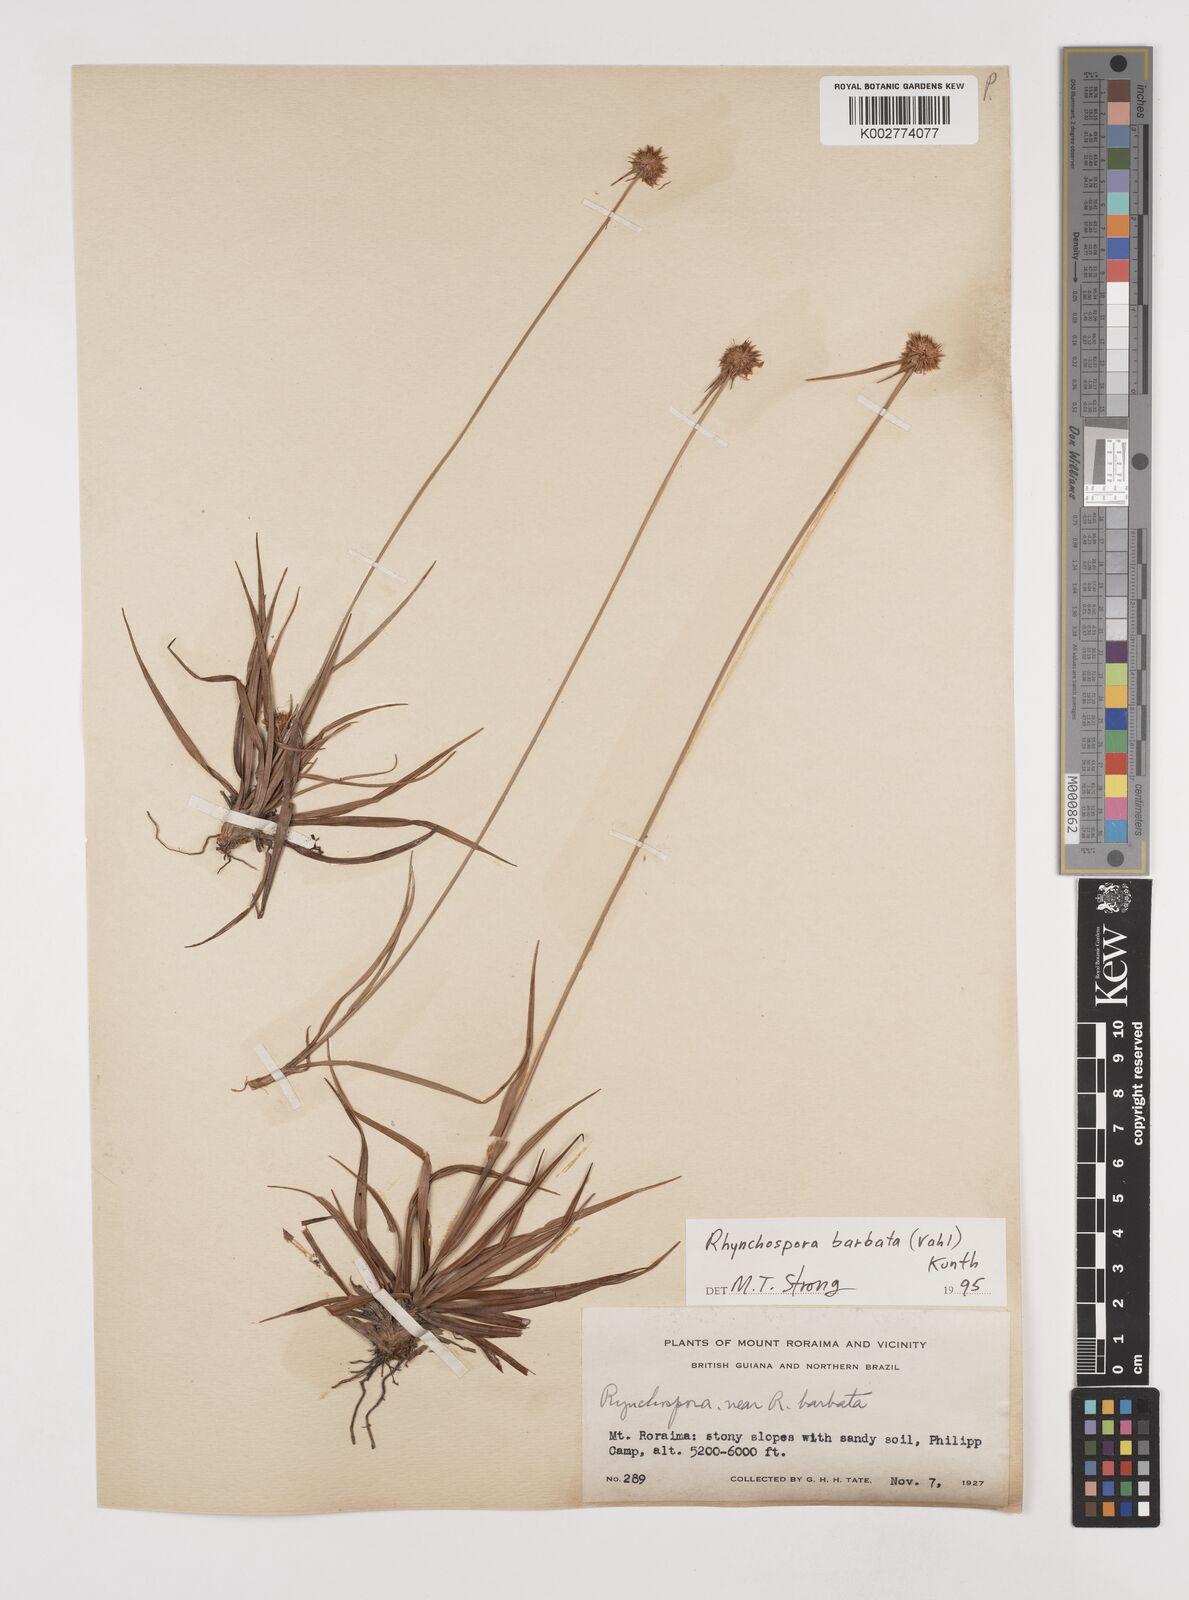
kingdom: Plantae
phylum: Tracheophyta
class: Liliopsida
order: Poales
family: Cyperaceae
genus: Rhynchospora
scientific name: Rhynchospora barbata
